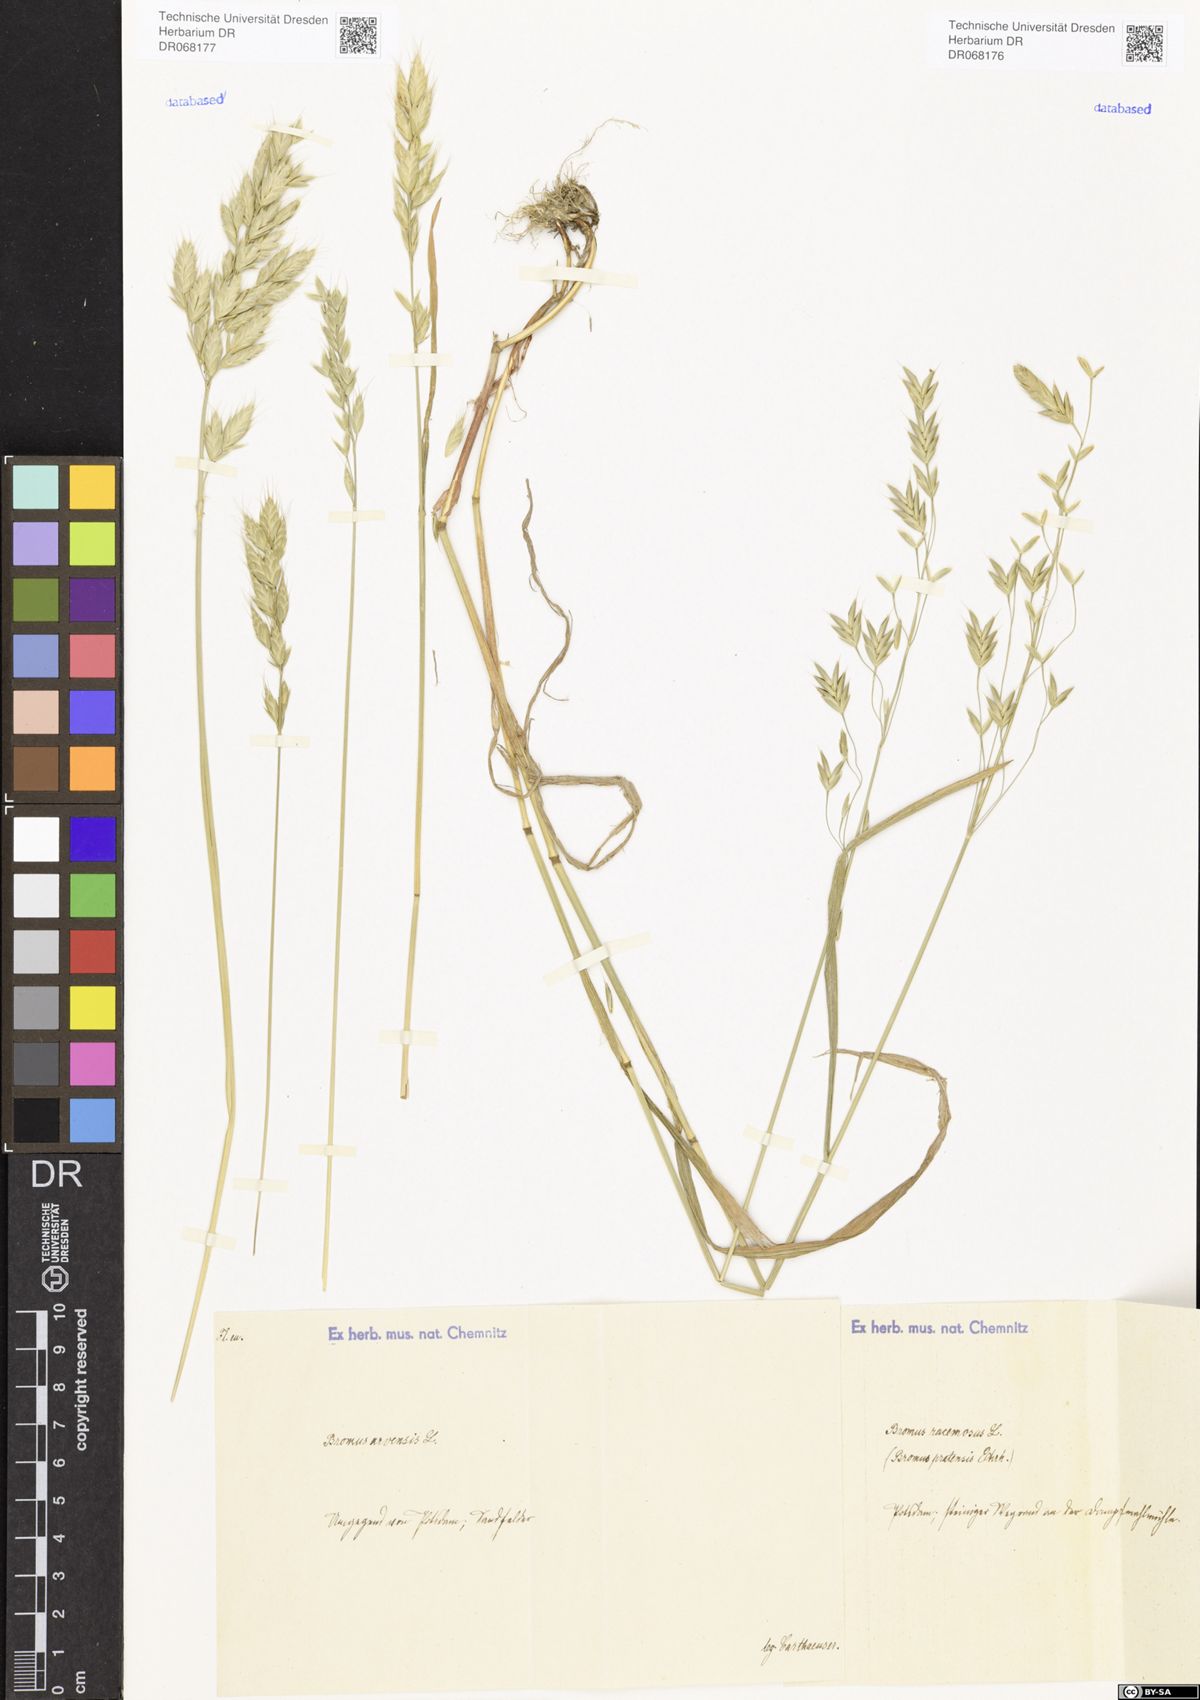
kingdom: Plantae
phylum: Tracheophyta
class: Liliopsida
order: Poales
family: Poaceae
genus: Bromus
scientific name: Bromus racemosus
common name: Bald brome
